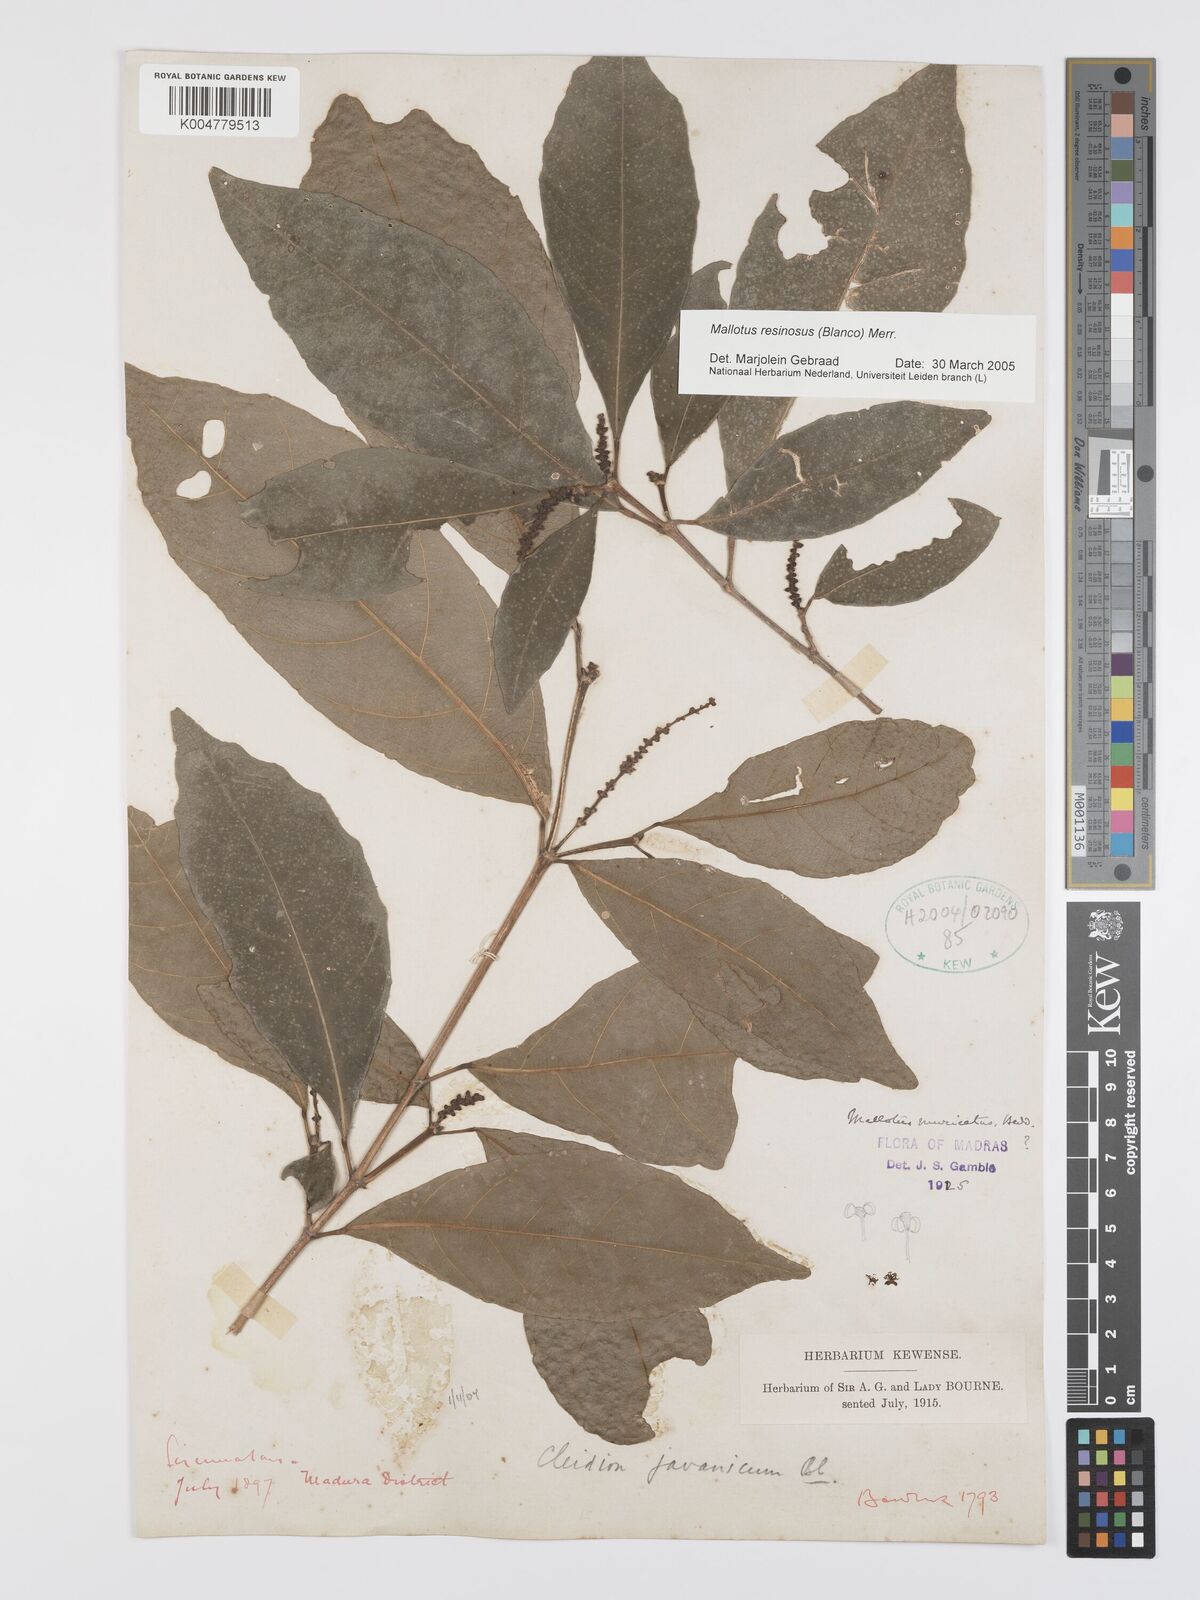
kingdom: Plantae
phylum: Tracheophyta
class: Magnoliopsida
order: Malpighiales
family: Euphorbiaceae
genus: Mallotus
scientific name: Mallotus resinosus
